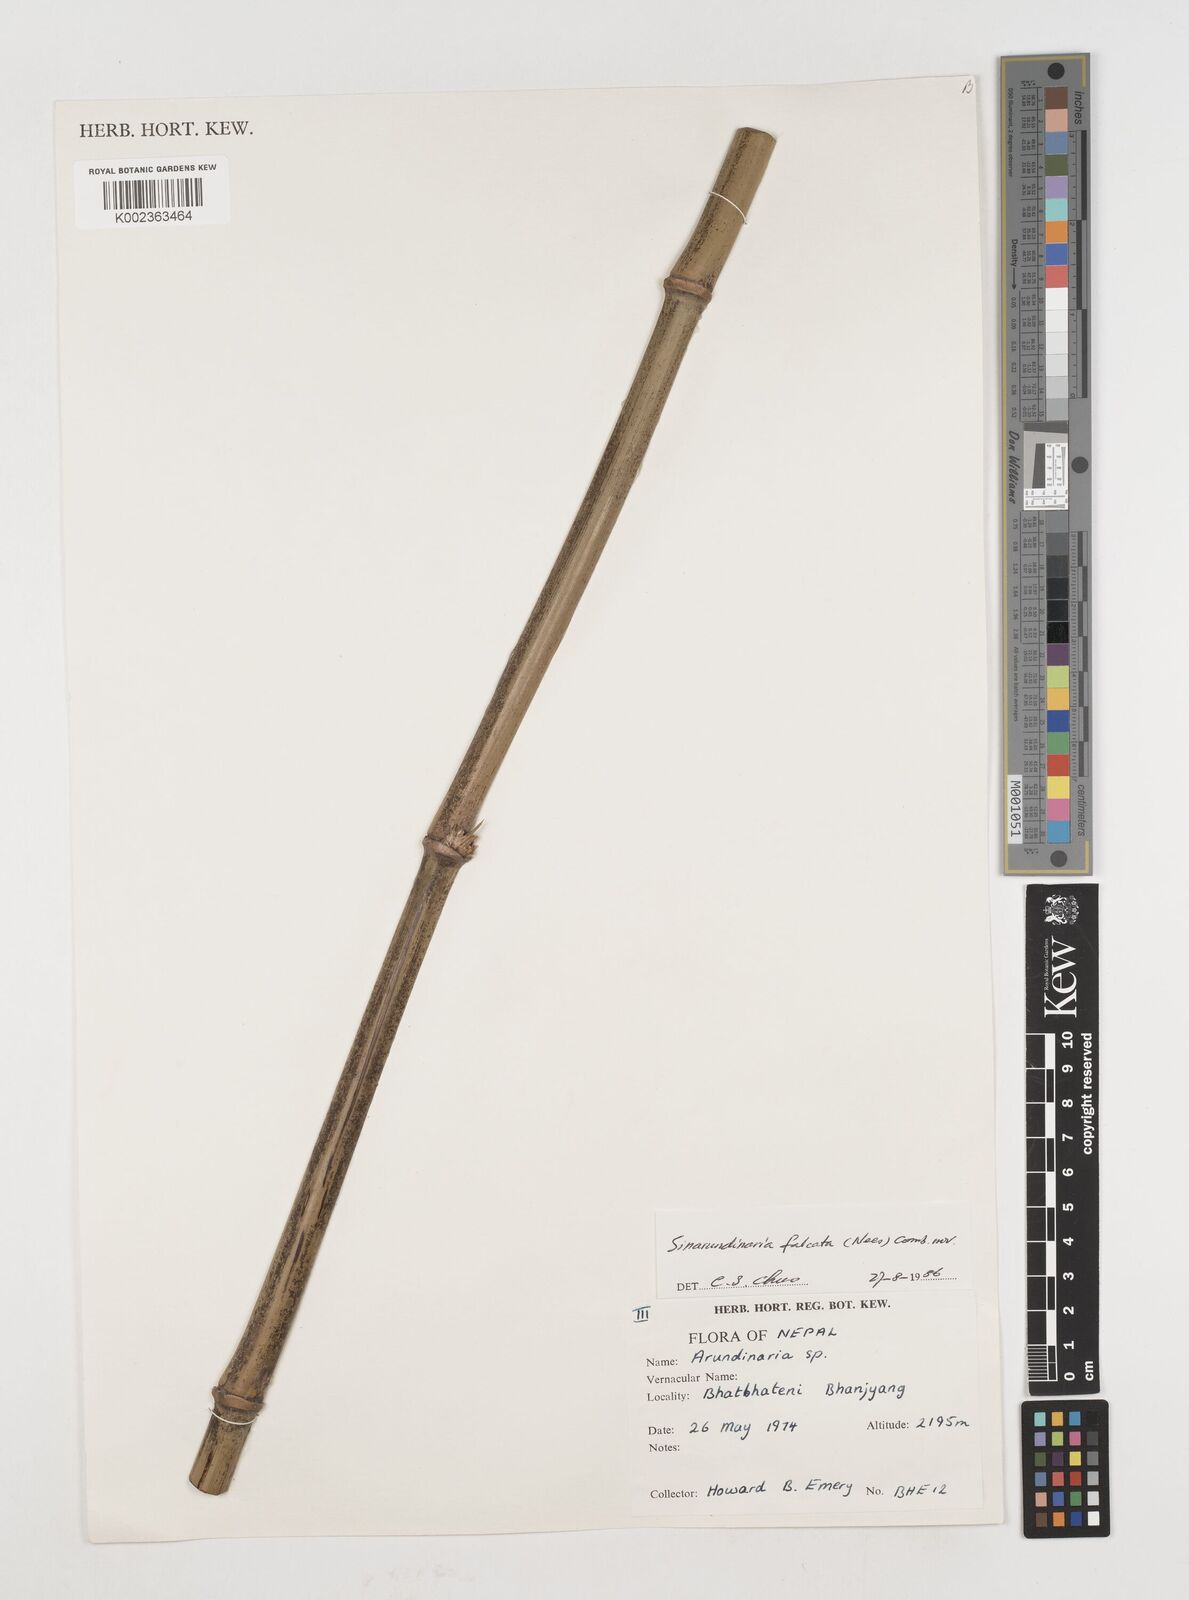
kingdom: Plantae
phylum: Tracheophyta
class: Liliopsida
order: Poales
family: Poaceae
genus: Himalayacalamus
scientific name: Himalayacalamus brevinodus
